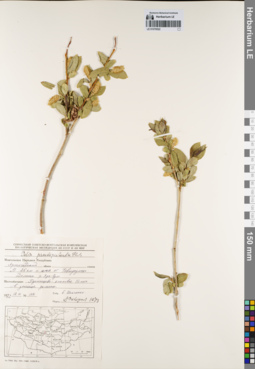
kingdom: Plantae
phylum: Tracheophyta
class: Magnoliopsida
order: Malpighiales
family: Salicaceae
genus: Salix
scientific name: Salix pseudopentandra
